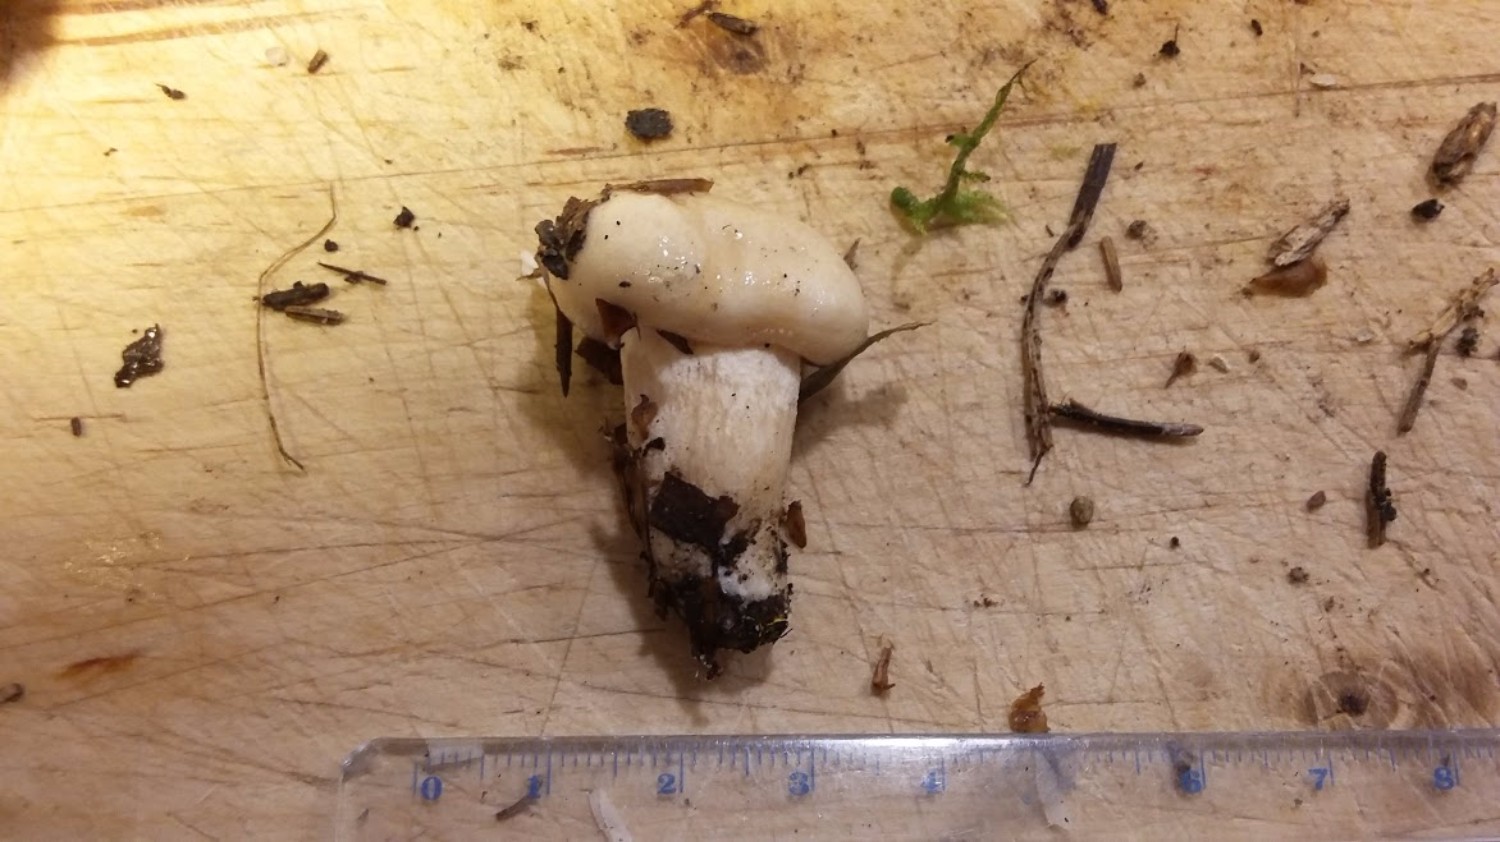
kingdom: Fungi
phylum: Basidiomycota
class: Agaricomycetes
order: Agaricales
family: Hygrophoraceae
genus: Hygrophorus
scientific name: Hygrophorus
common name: sneglehat
